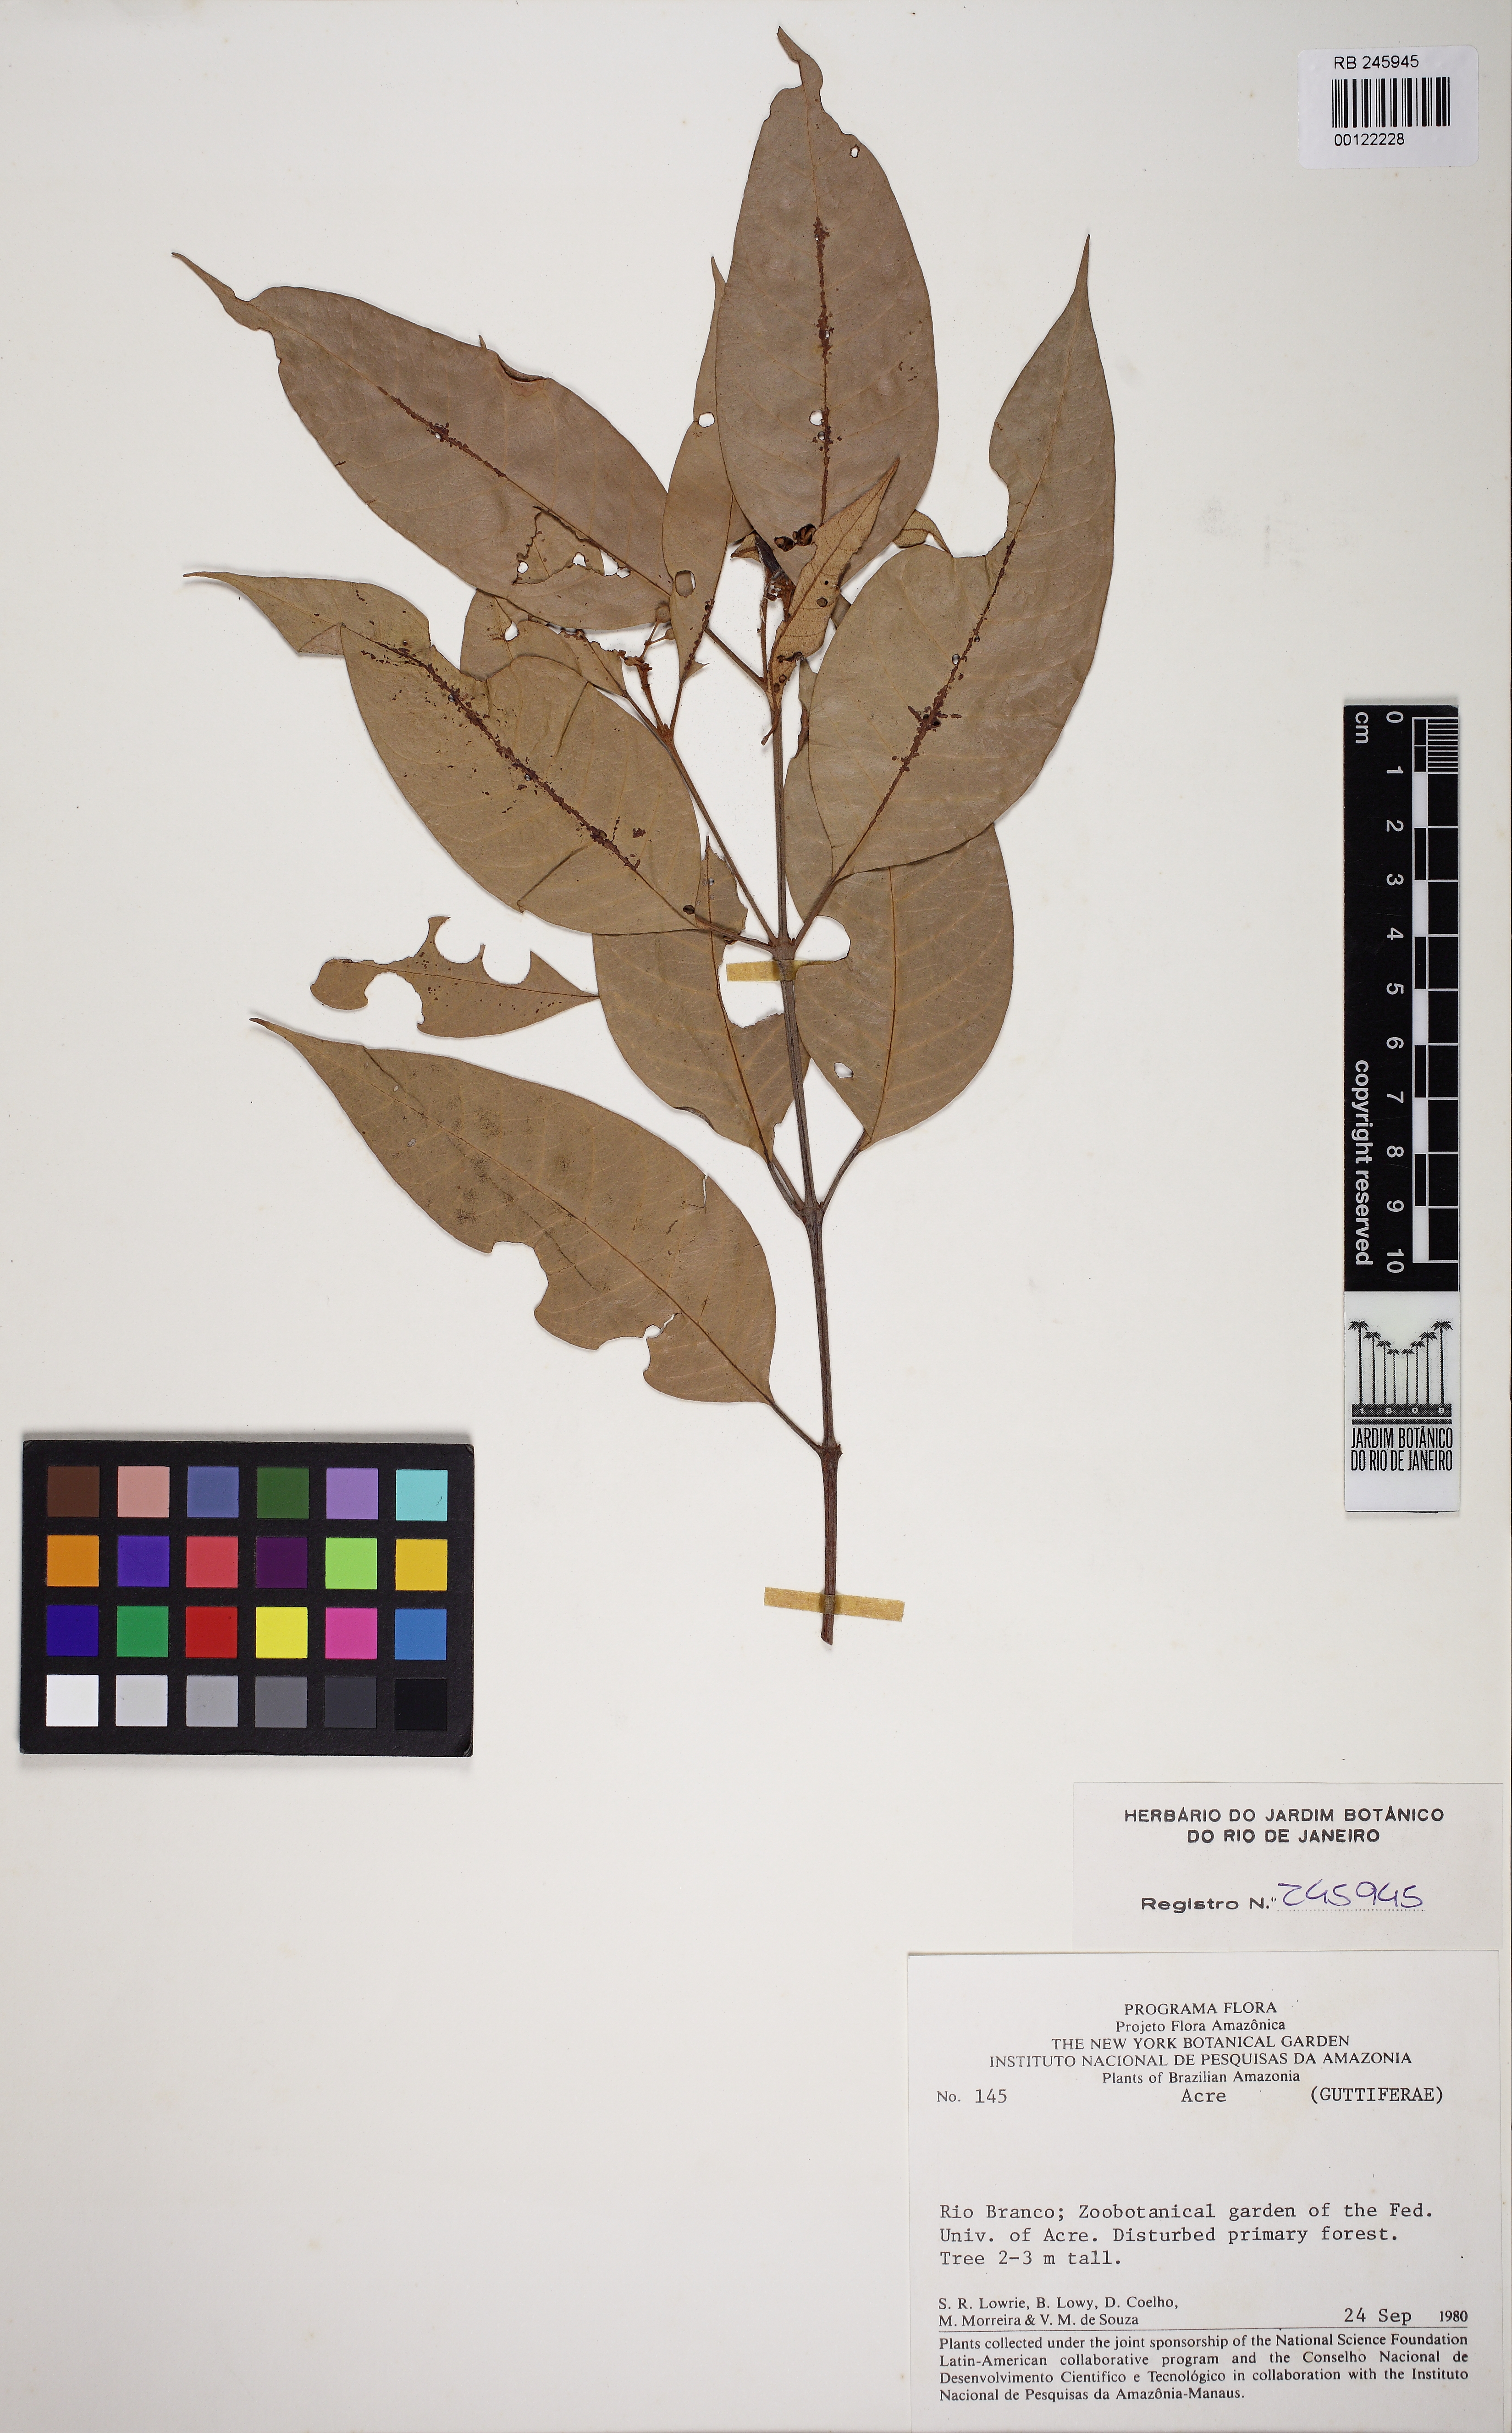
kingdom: Plantae
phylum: Tracheophyta
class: Magnoliopsida
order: Malpighiales
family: Hypericaceae
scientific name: Hypericaceae
